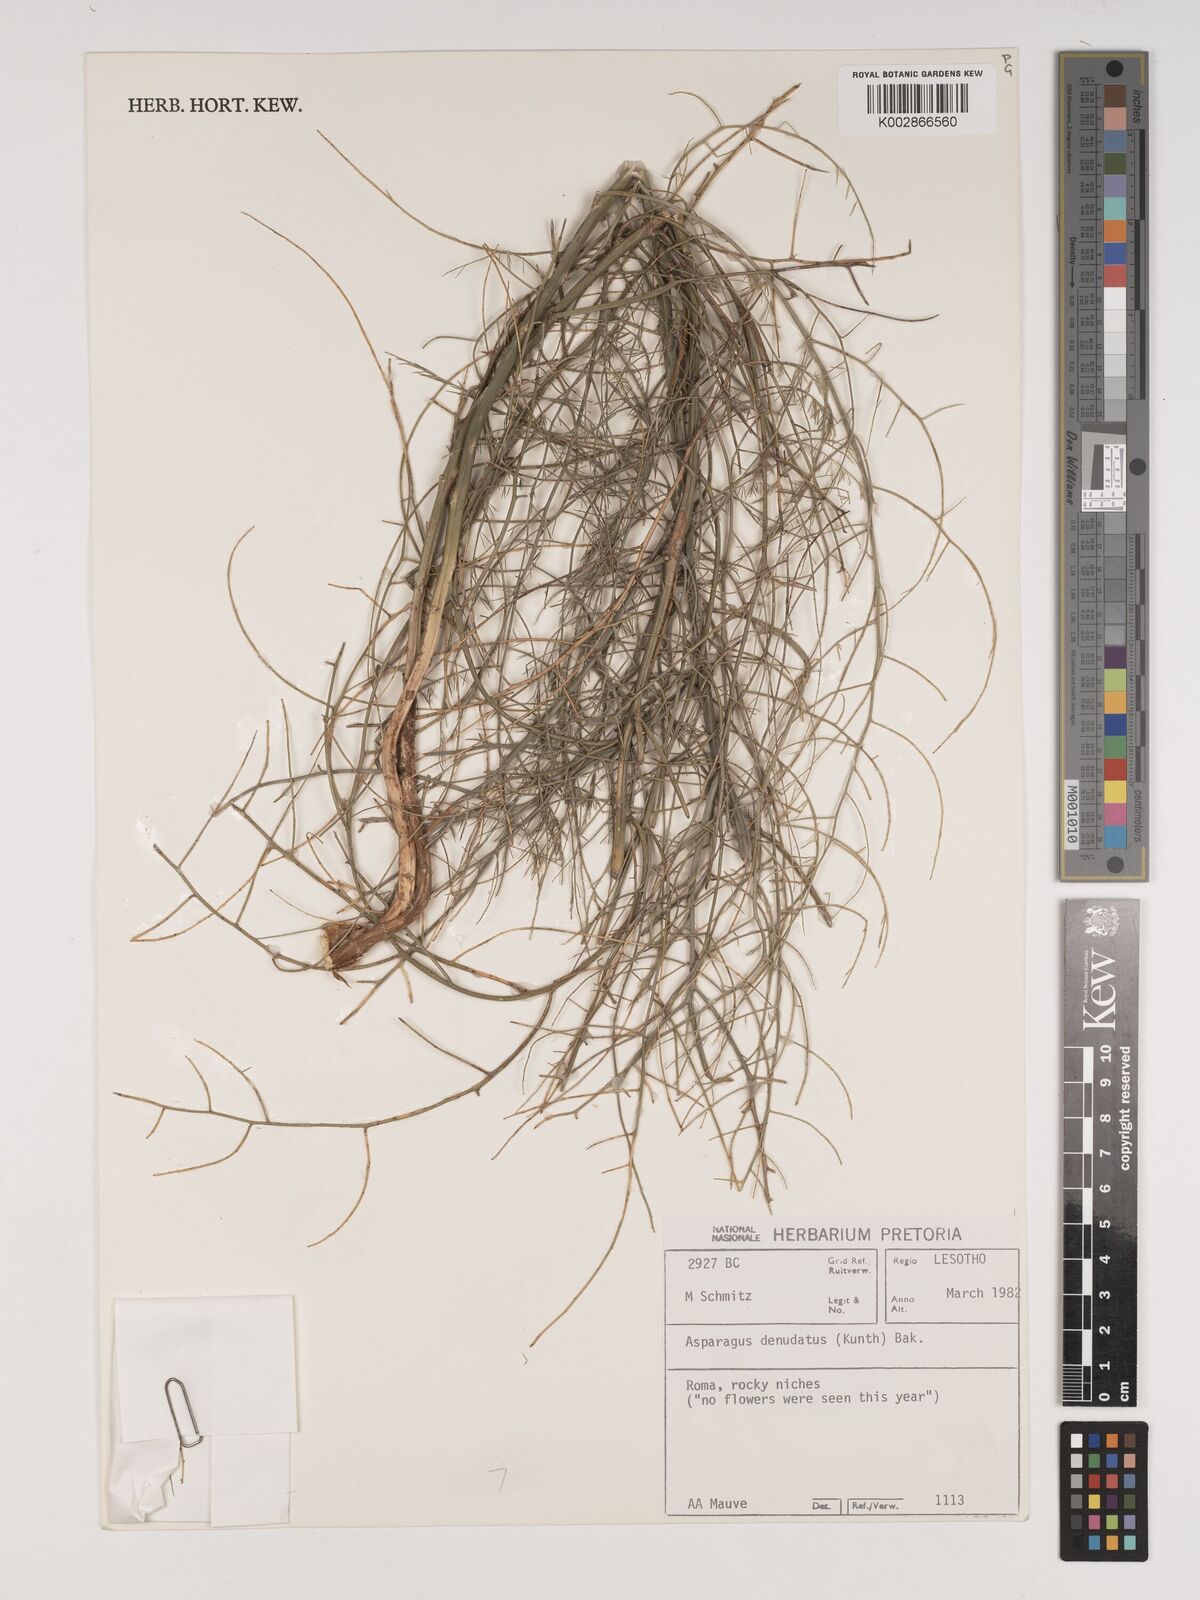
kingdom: Plantae
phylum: Tracheophyta
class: Liliopsida
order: Asparagales
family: Asparagaceae
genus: Asparagus
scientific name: Asparagus denudatus
